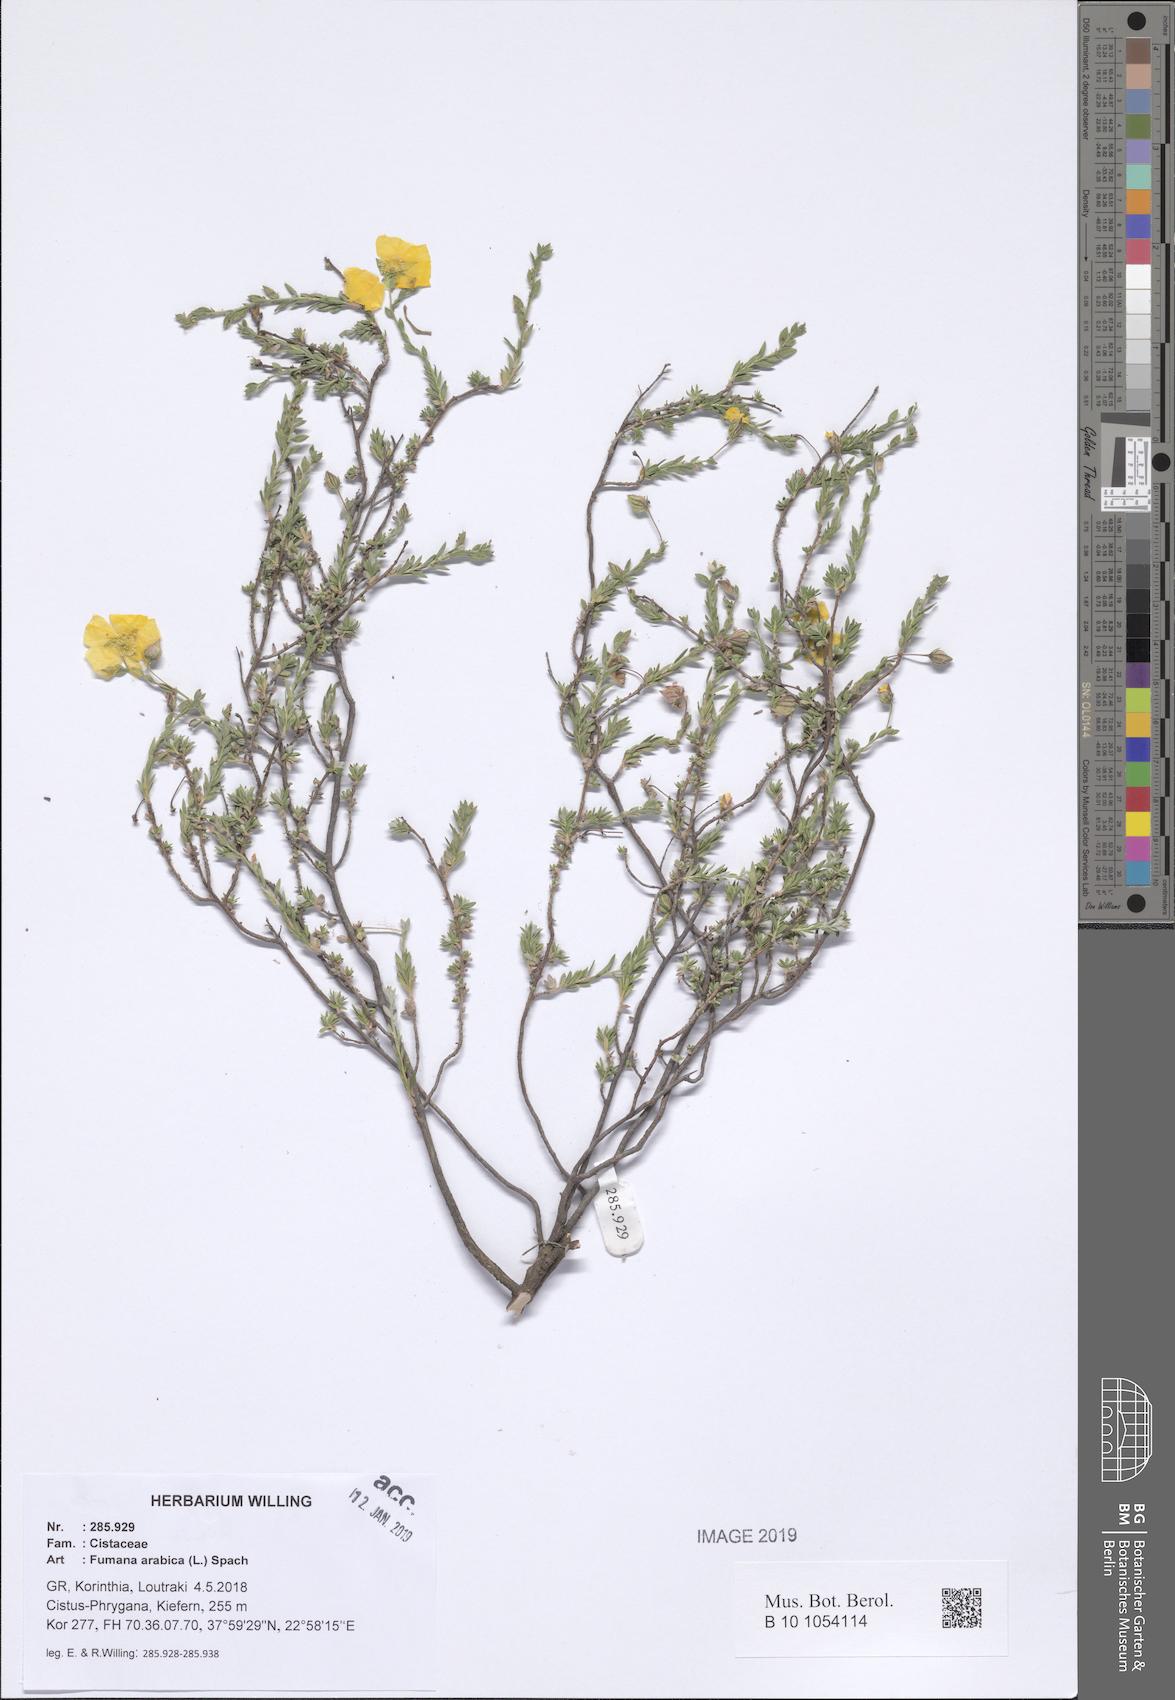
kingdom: Plantae
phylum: Tracheophyta
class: Magnoliopsida
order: Malvales
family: Cistaceae
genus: Fumana
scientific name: Fumana arabica
